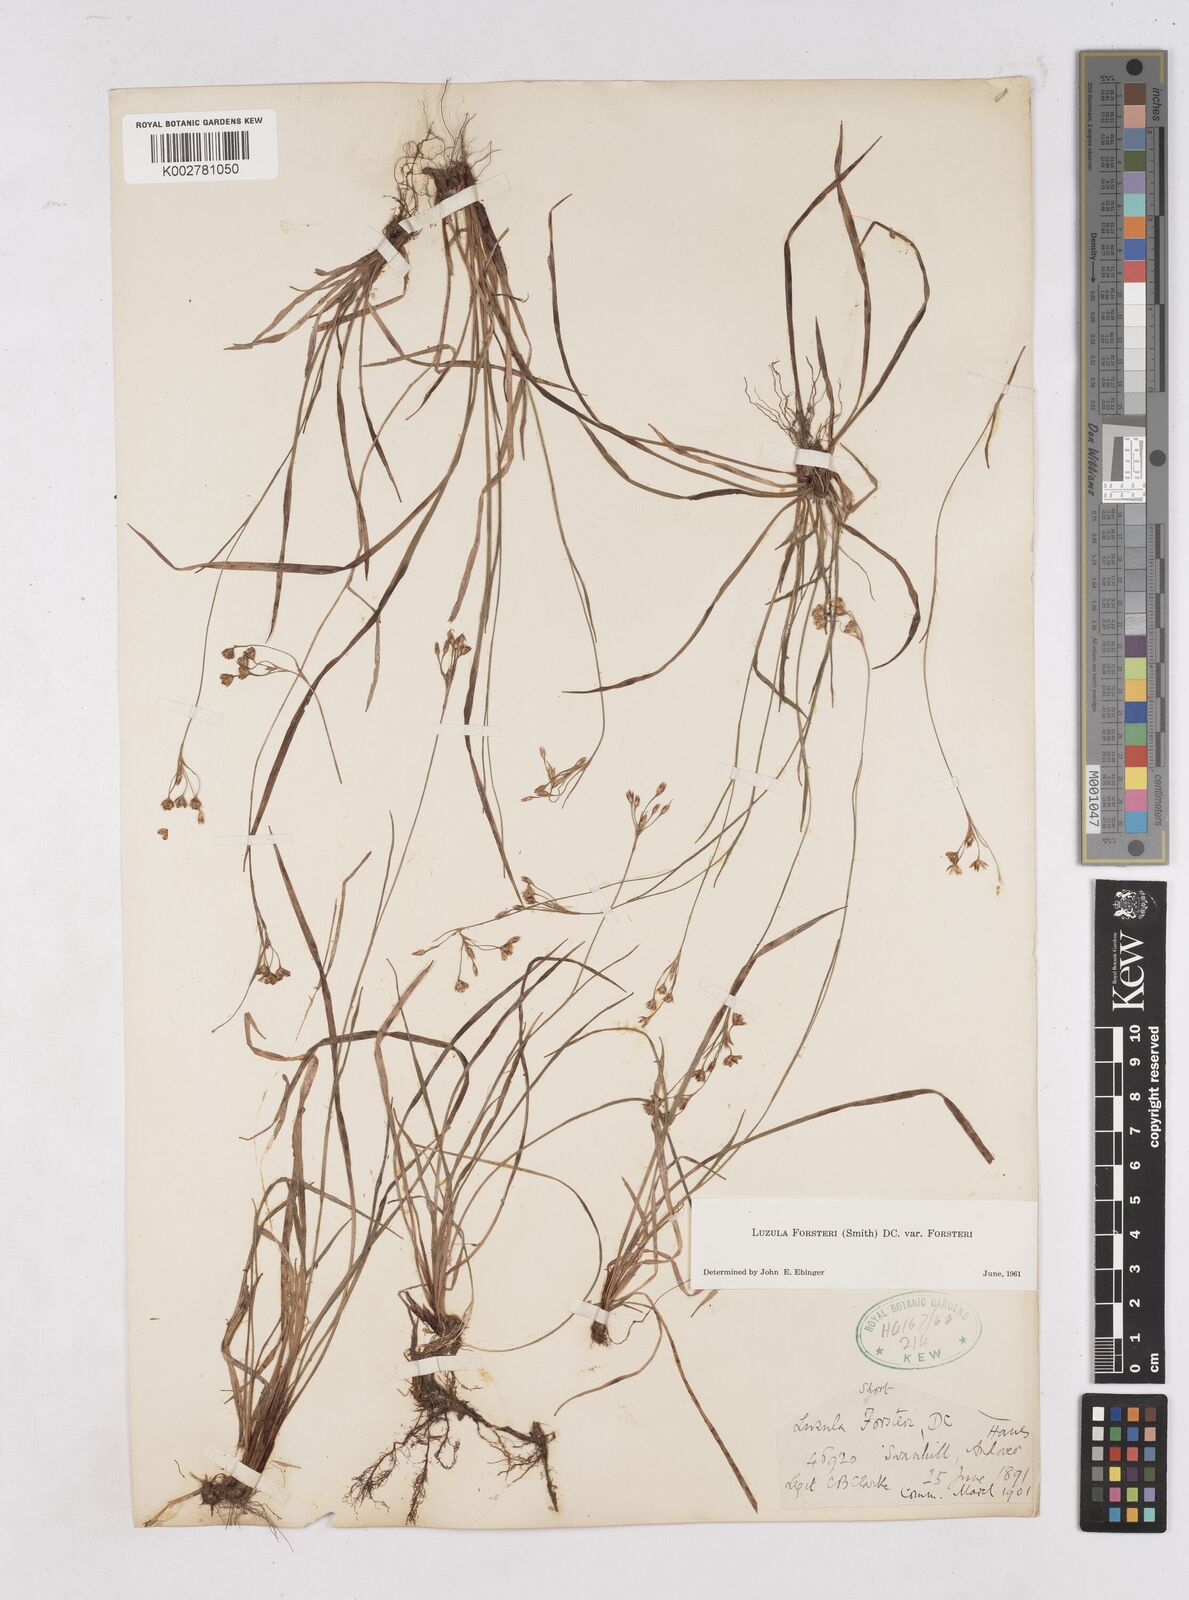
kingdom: Plantae
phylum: Tracheophyta
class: Liliopsida
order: Poales
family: Juncaceae
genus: Luzula
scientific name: Luzula forsteri
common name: Southern wood-rush
